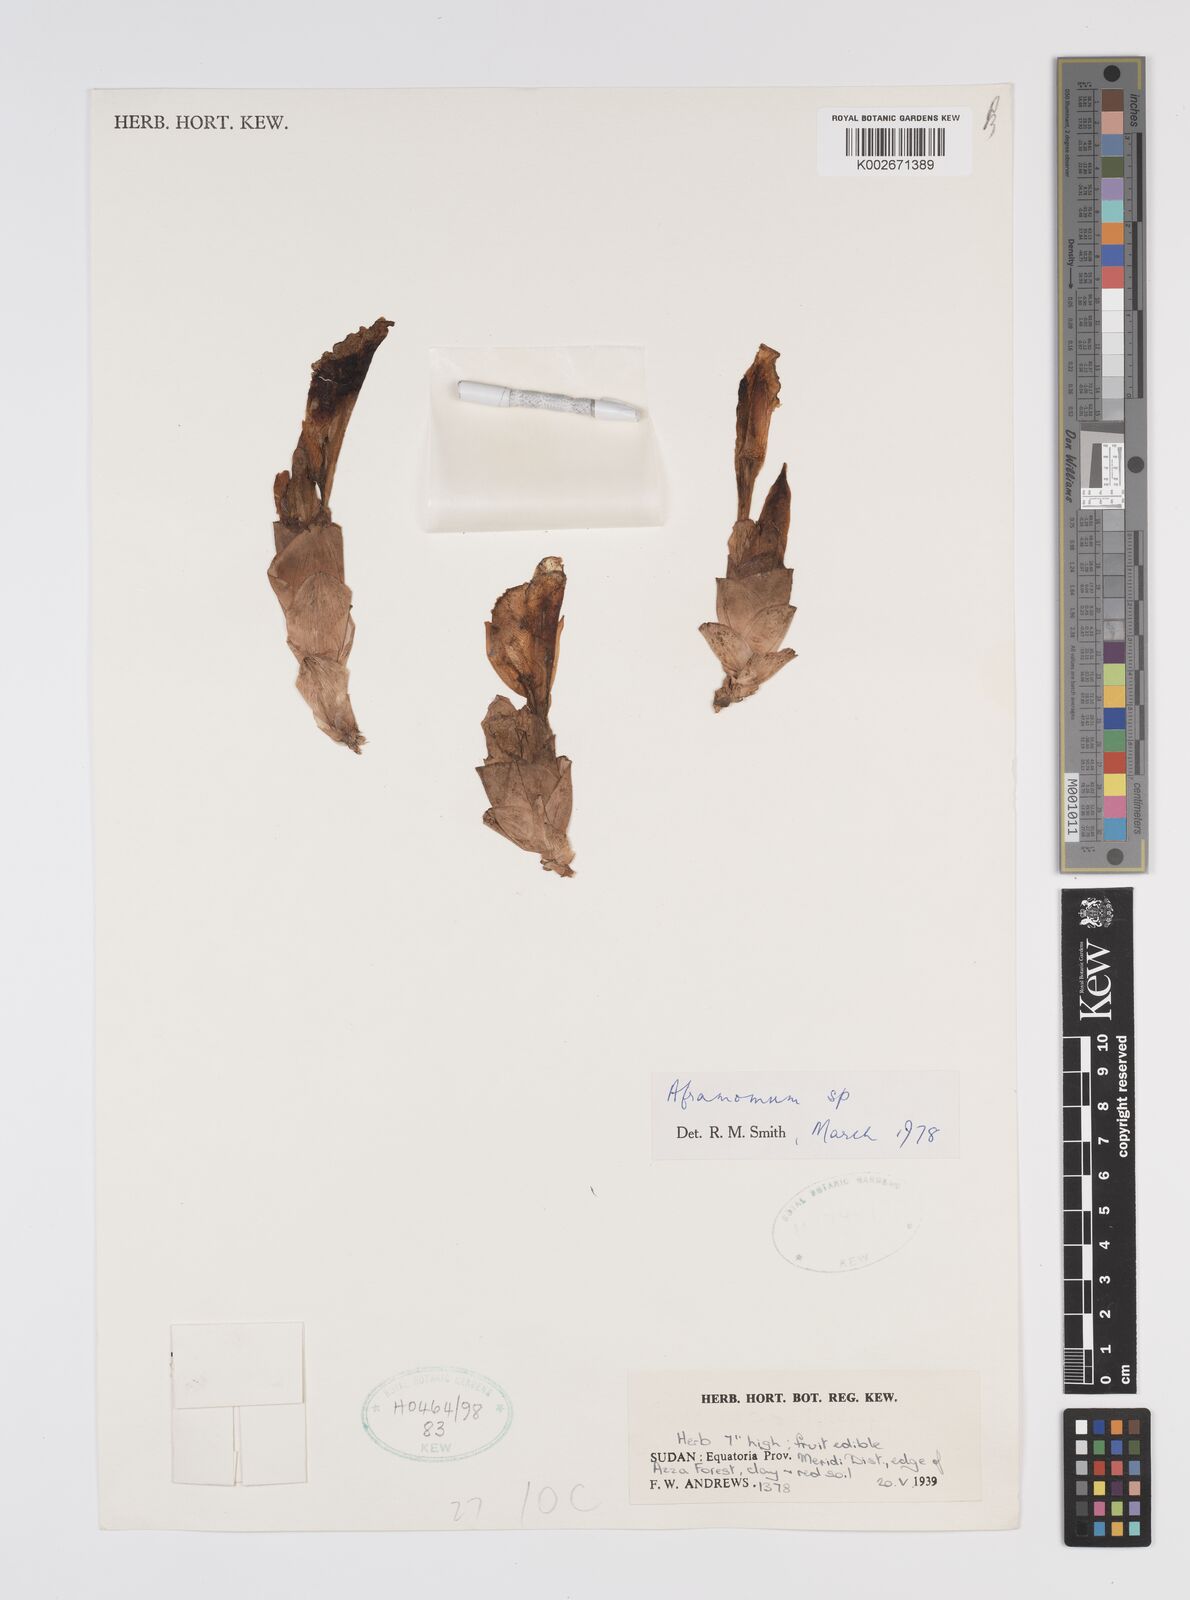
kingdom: Plantae
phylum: Tracheophyta
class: Liliopsida
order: Zingiberales
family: Zingiberaceae
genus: Aframomum
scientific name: Aframomum
